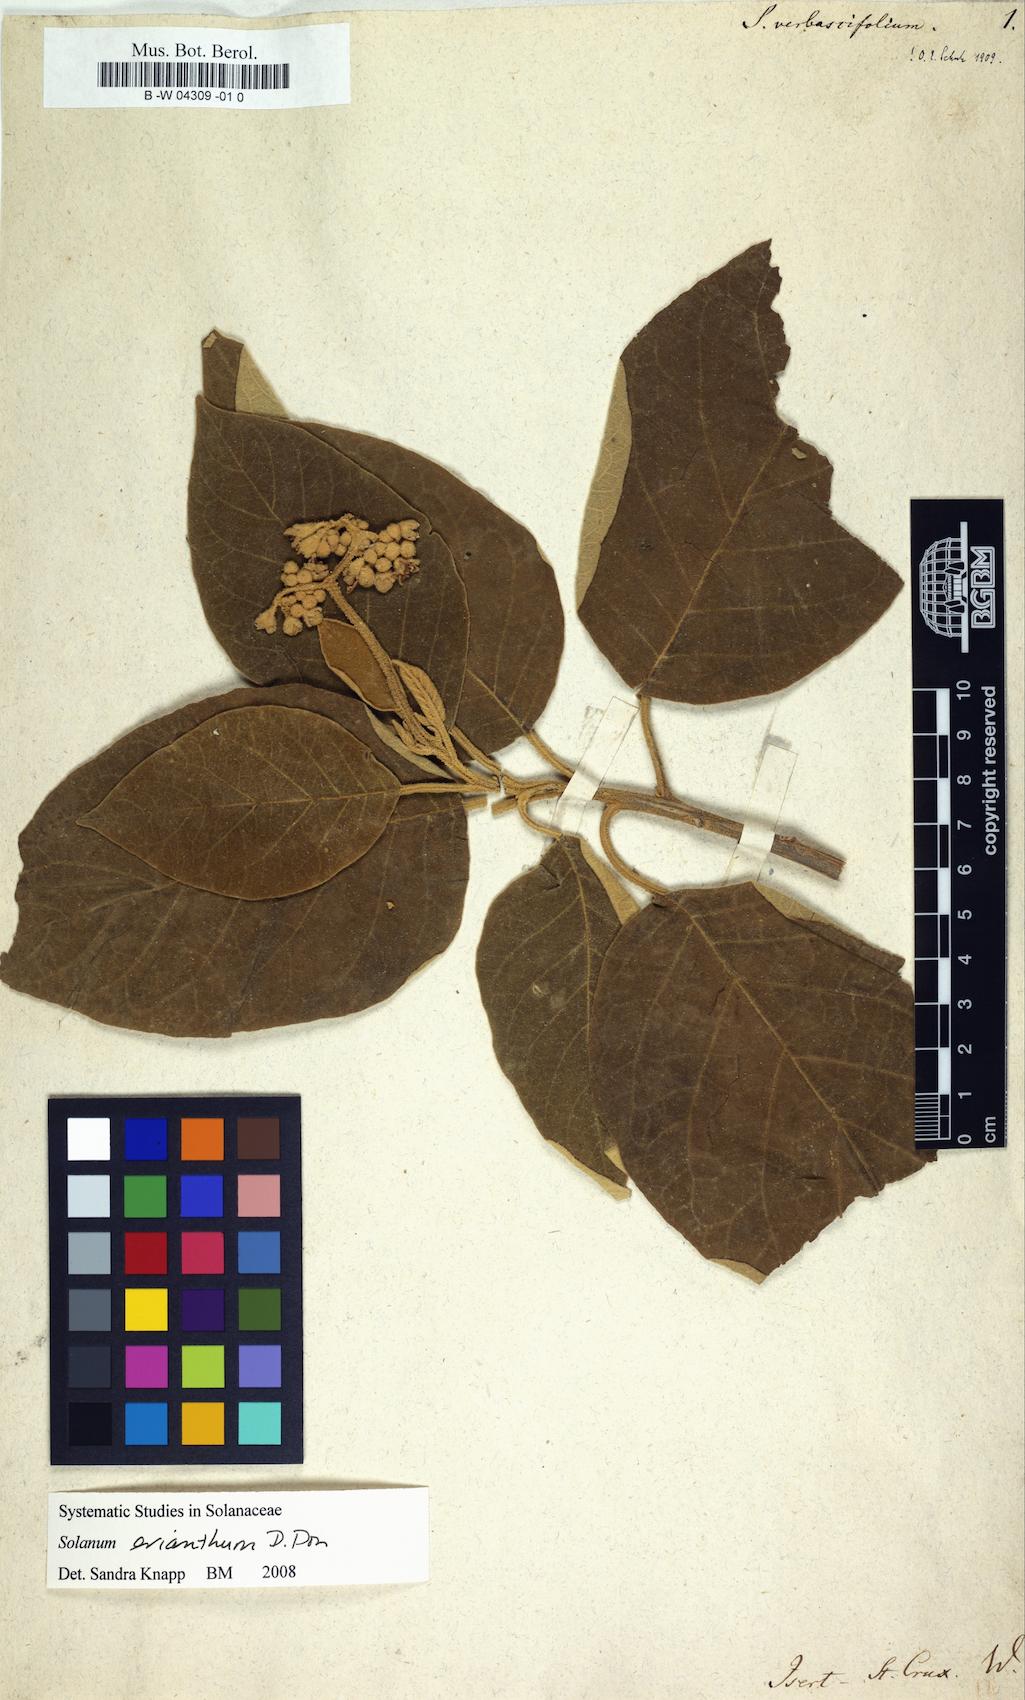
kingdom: Plantae
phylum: Tracheophyta
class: Magnoliopsida
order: Solanales
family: Solanaceae
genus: Solanum
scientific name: Solanum
